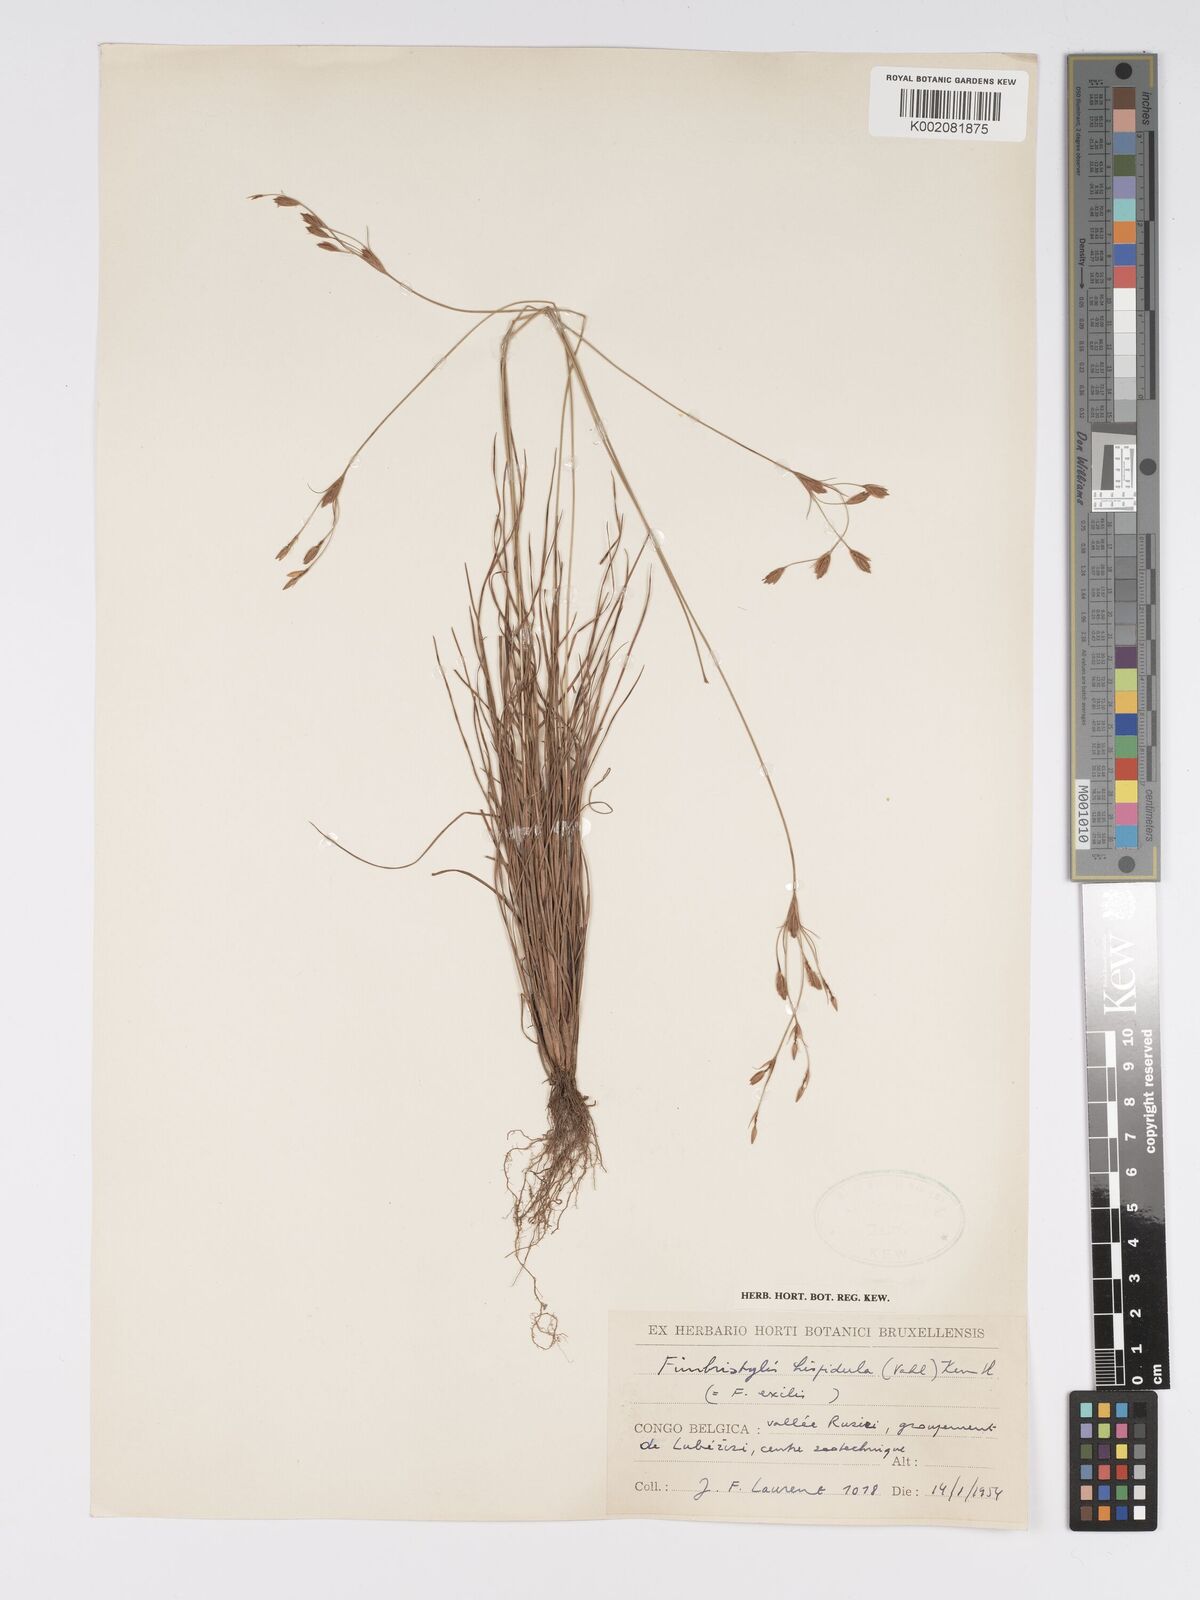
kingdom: Plantae
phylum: Tracheophyta
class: Liliopsida
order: Poales
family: Cyperaceae
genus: Bulbostylis
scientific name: Bulbostylis hispidula
